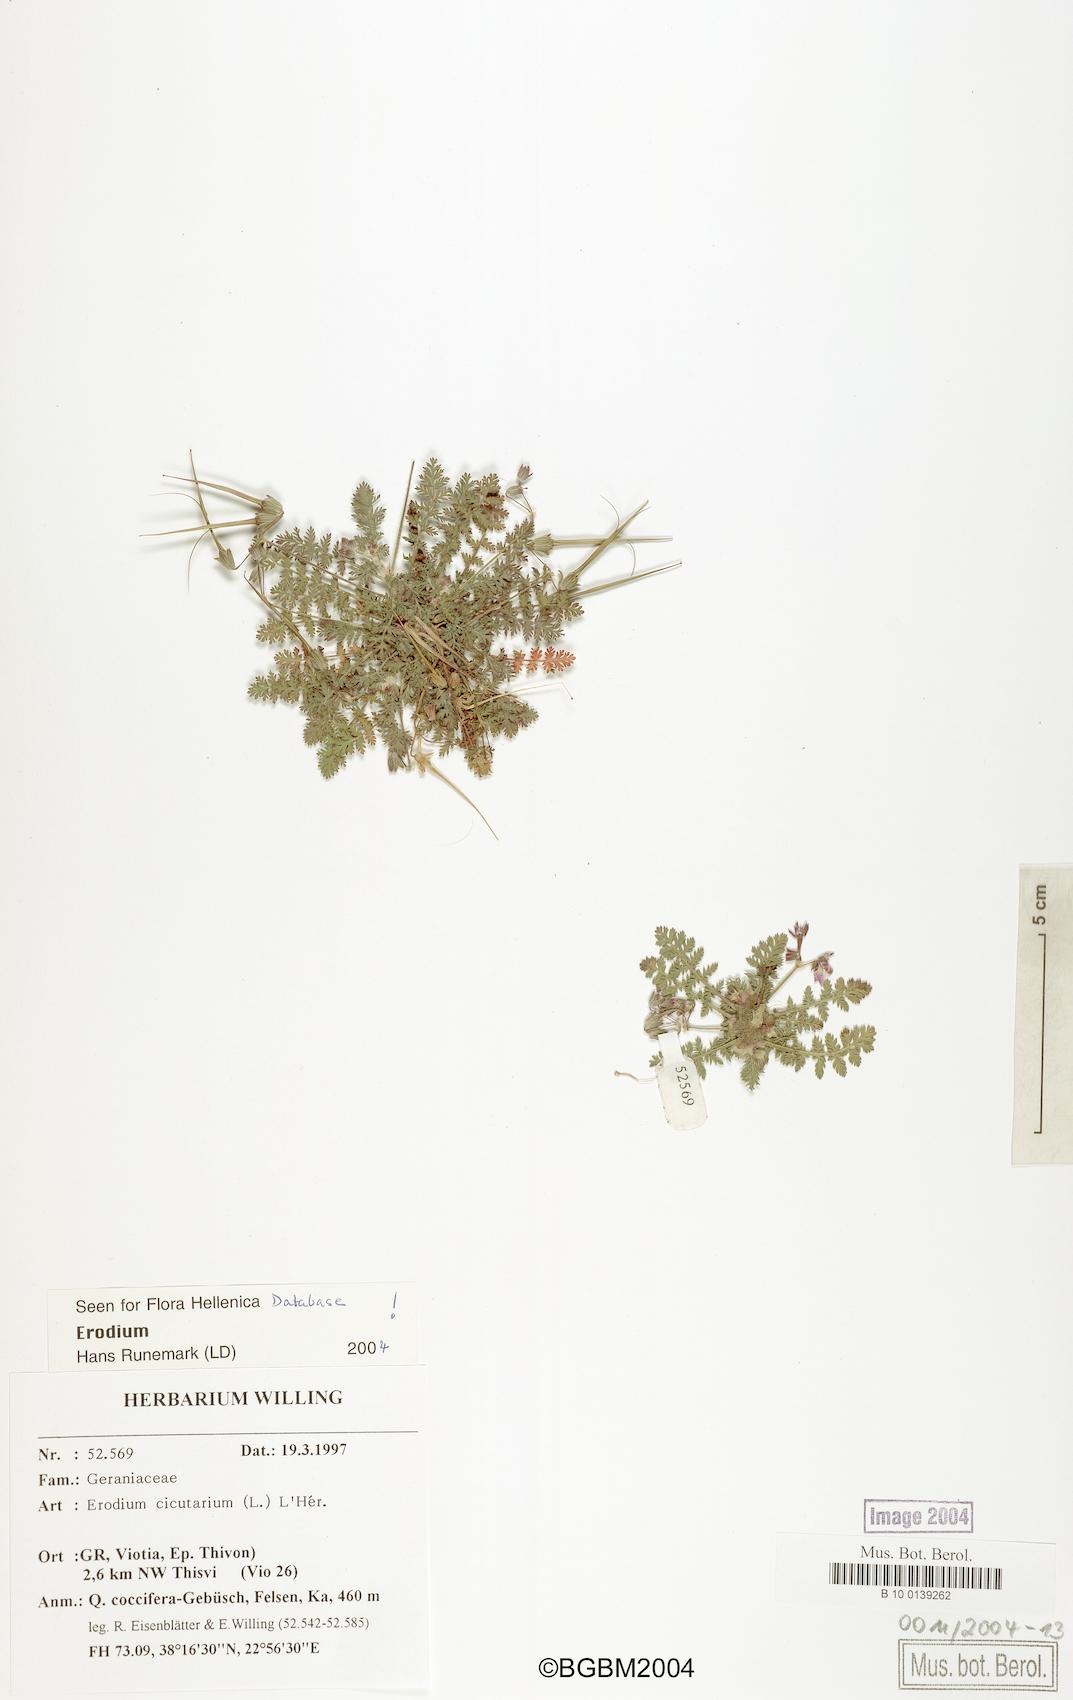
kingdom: Plantae
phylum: Tracheophyta
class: Magnoliopsida
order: Geraniales
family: Geraniaceae
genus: Erodium
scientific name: Erodium cicutarium
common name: Common stork's-bill
